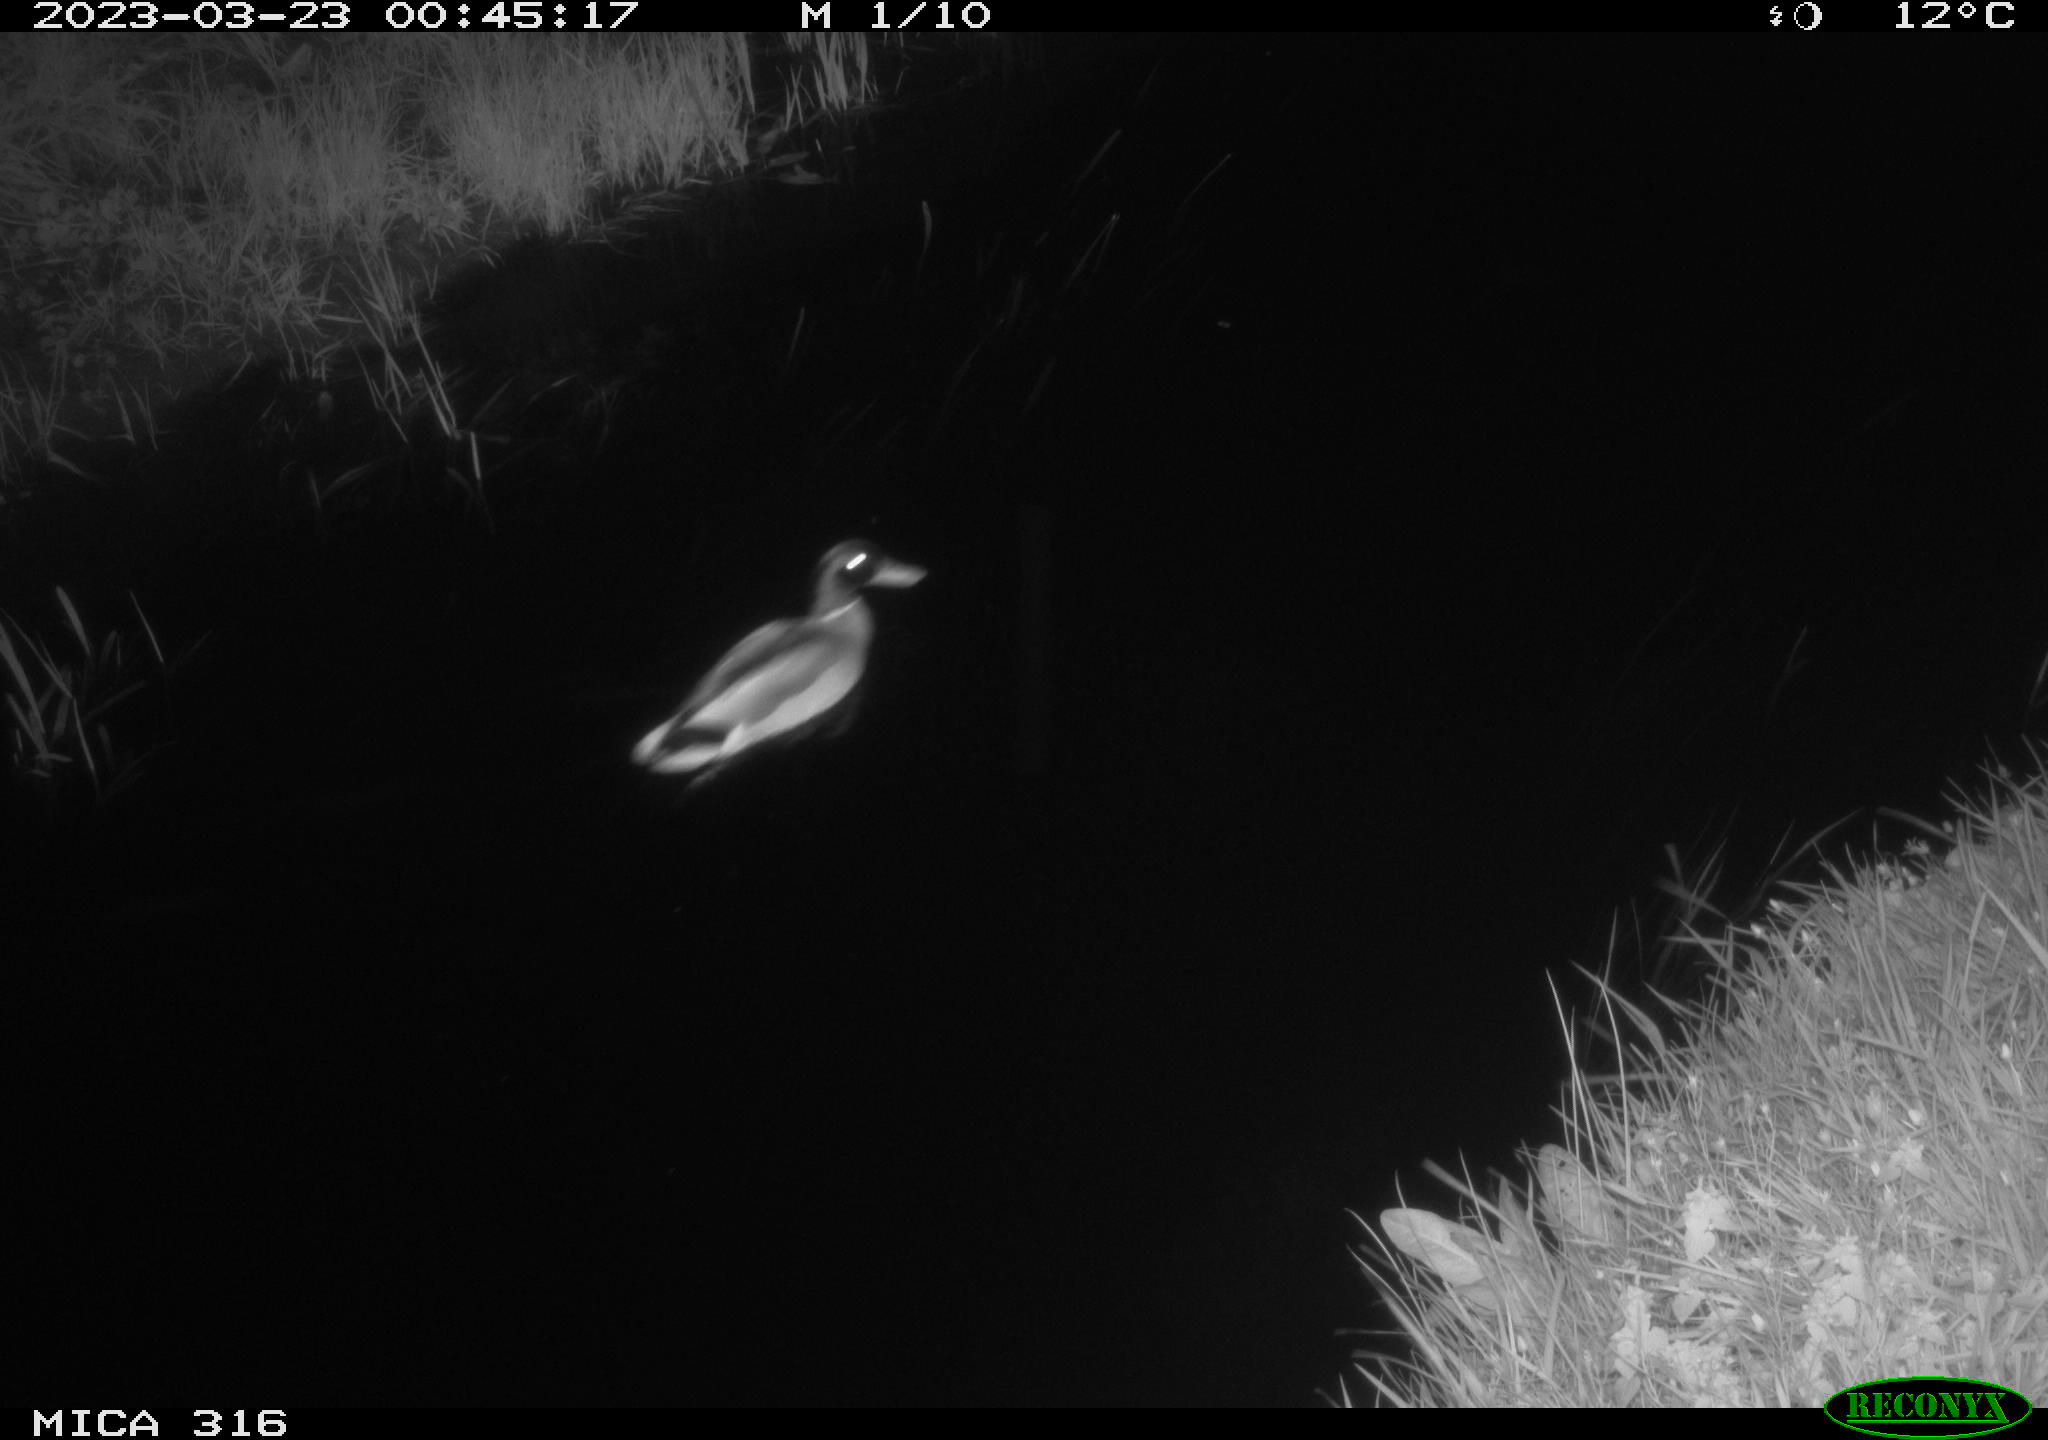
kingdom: Animalia
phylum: Chordata
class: Aves
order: Anseriformes
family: Anatidae
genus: Anas
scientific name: Anas
